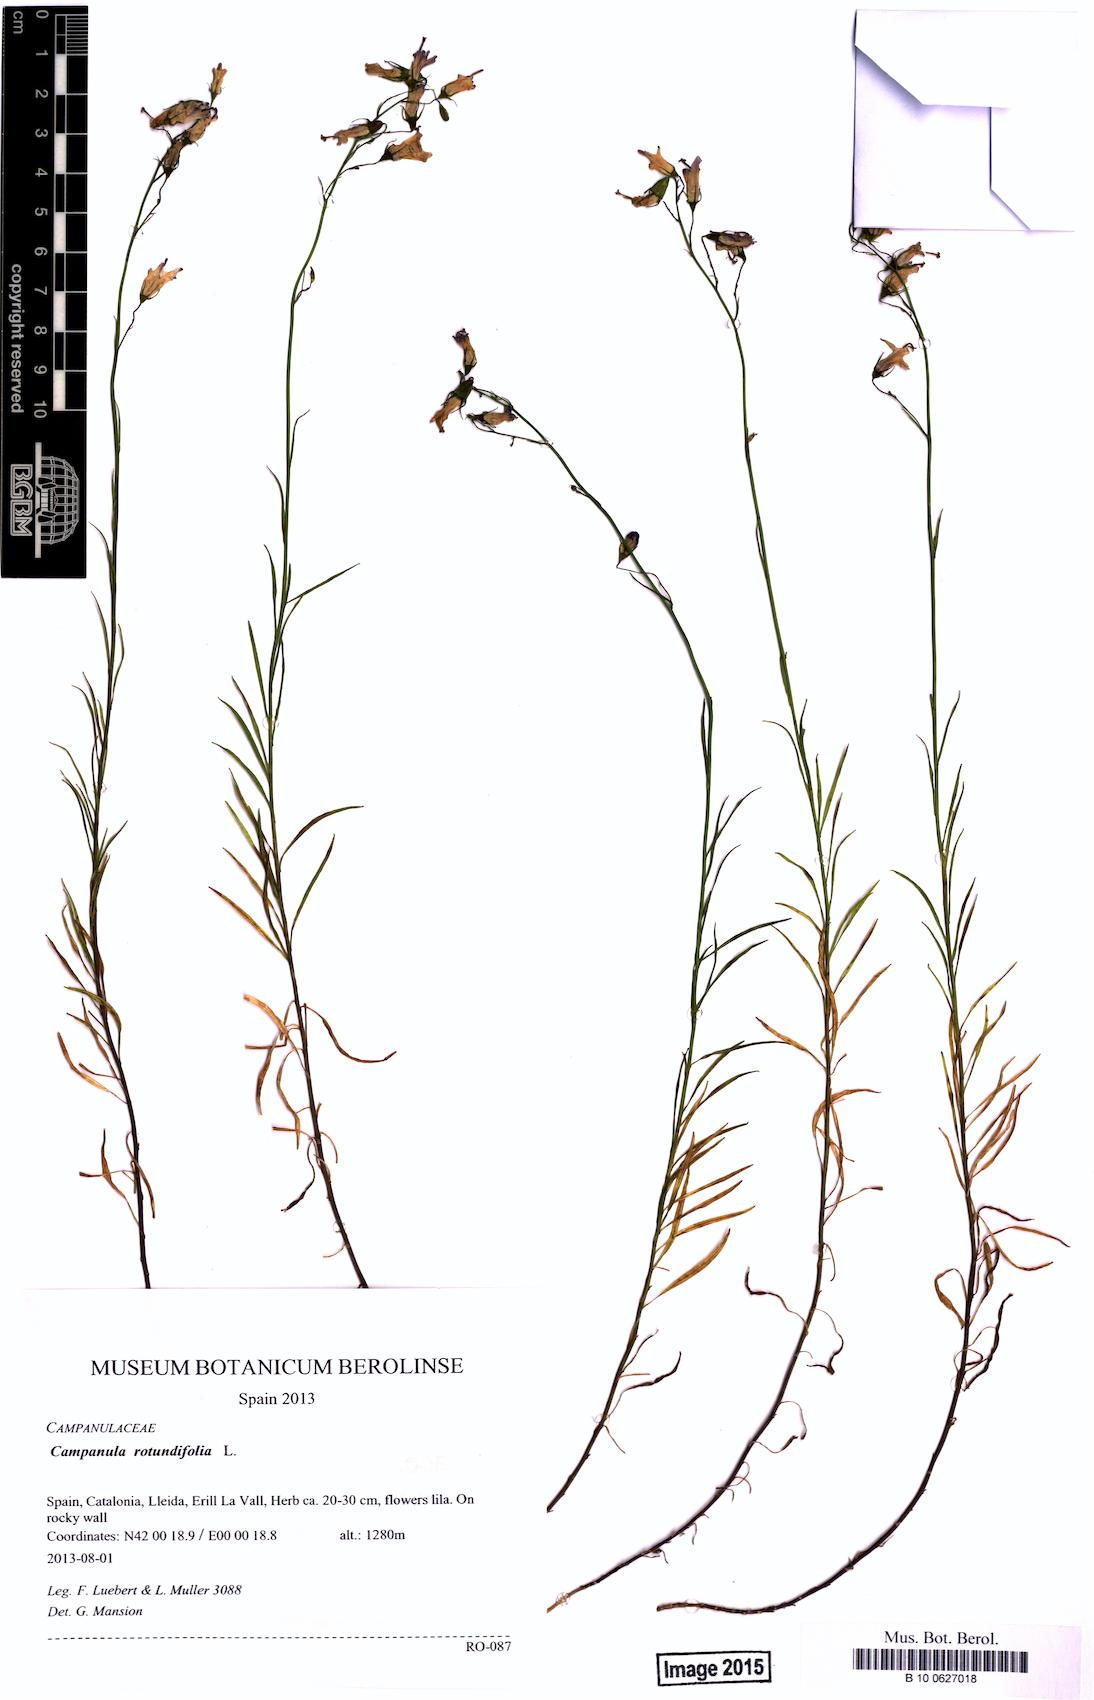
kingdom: Plantae
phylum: Tracheophyta
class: Magnoliopsida
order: Asterales
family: Campanulaceae
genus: Campanula
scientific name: Campanula rotundifolia
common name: Harebell
